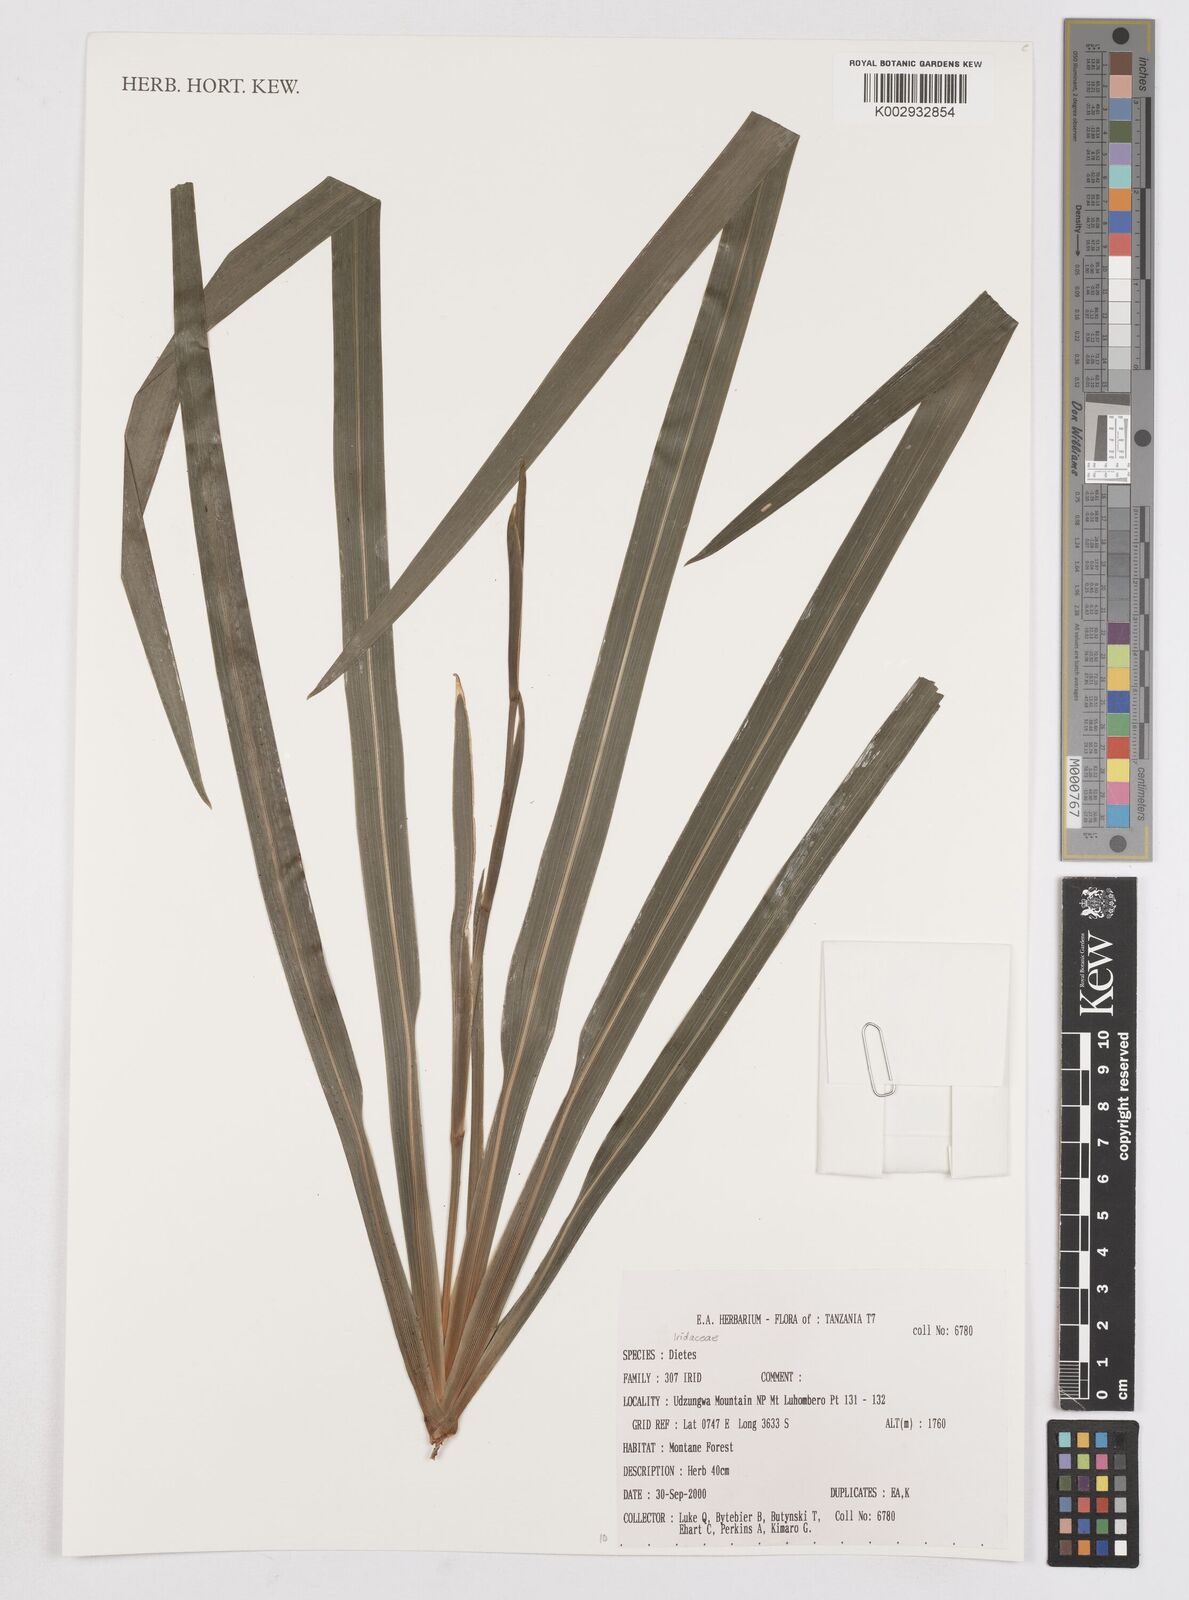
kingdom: Plantae
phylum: Tracheophyta
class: Liliopsida
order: Asparagales
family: Iridaceae
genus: Dietes
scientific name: Dietes
